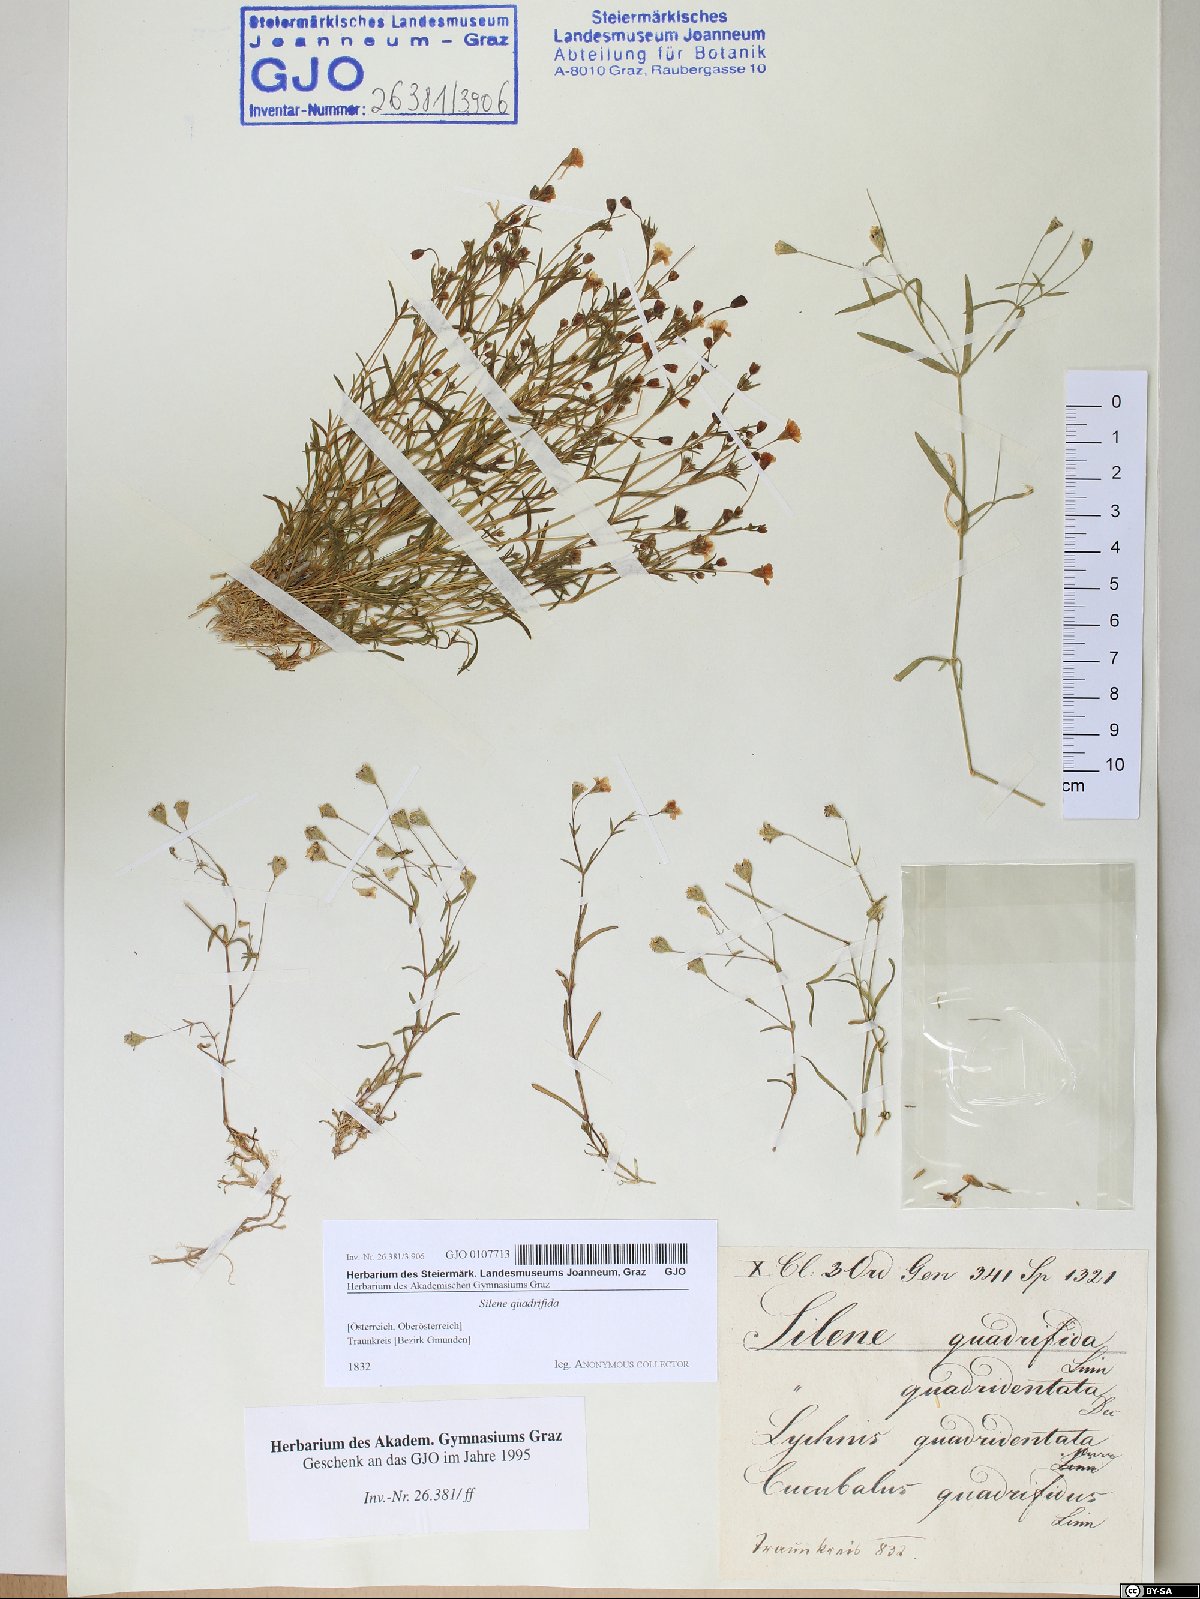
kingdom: Plantae
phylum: Tracheophyta
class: Magnoliopsida
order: Caryophyllales
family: Caryophyllaceae
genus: Heliosperma
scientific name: Heliosperma alpestre
